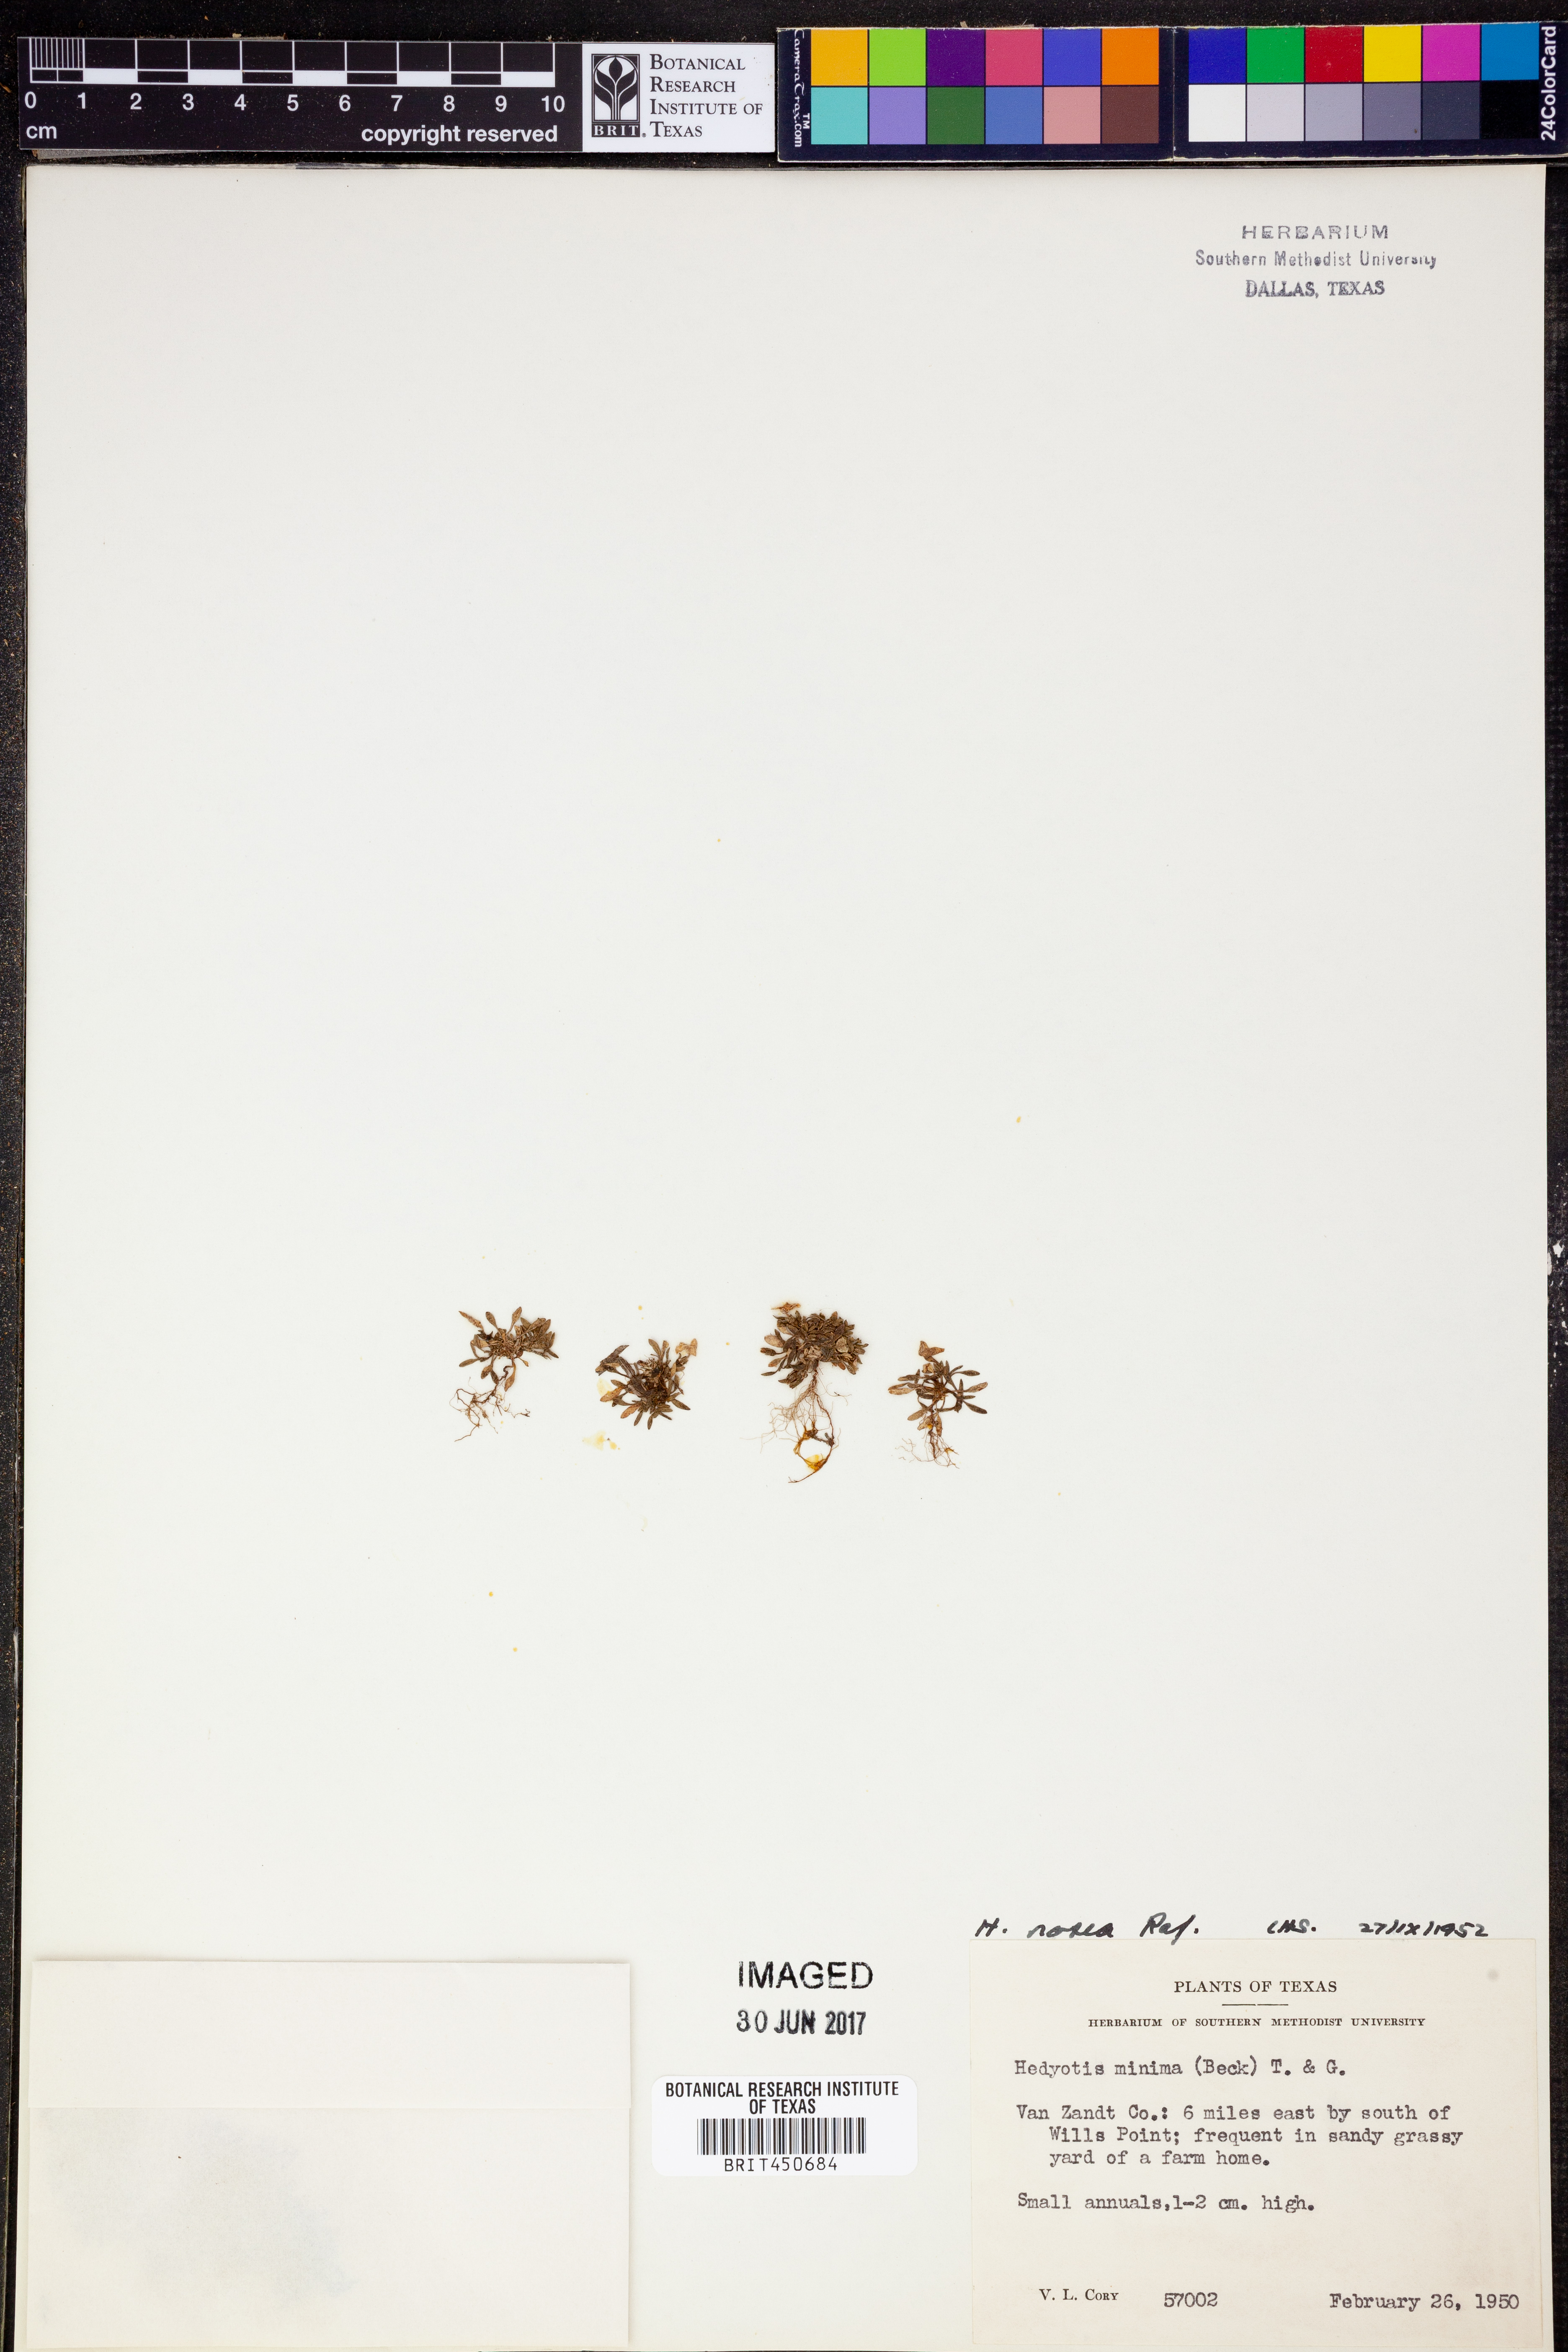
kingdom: Plantae
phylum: Tracheophyta
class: Magnoliopsida
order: Gentianales
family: Rubiaceae
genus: Houstonia
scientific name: Houstonia rosea
